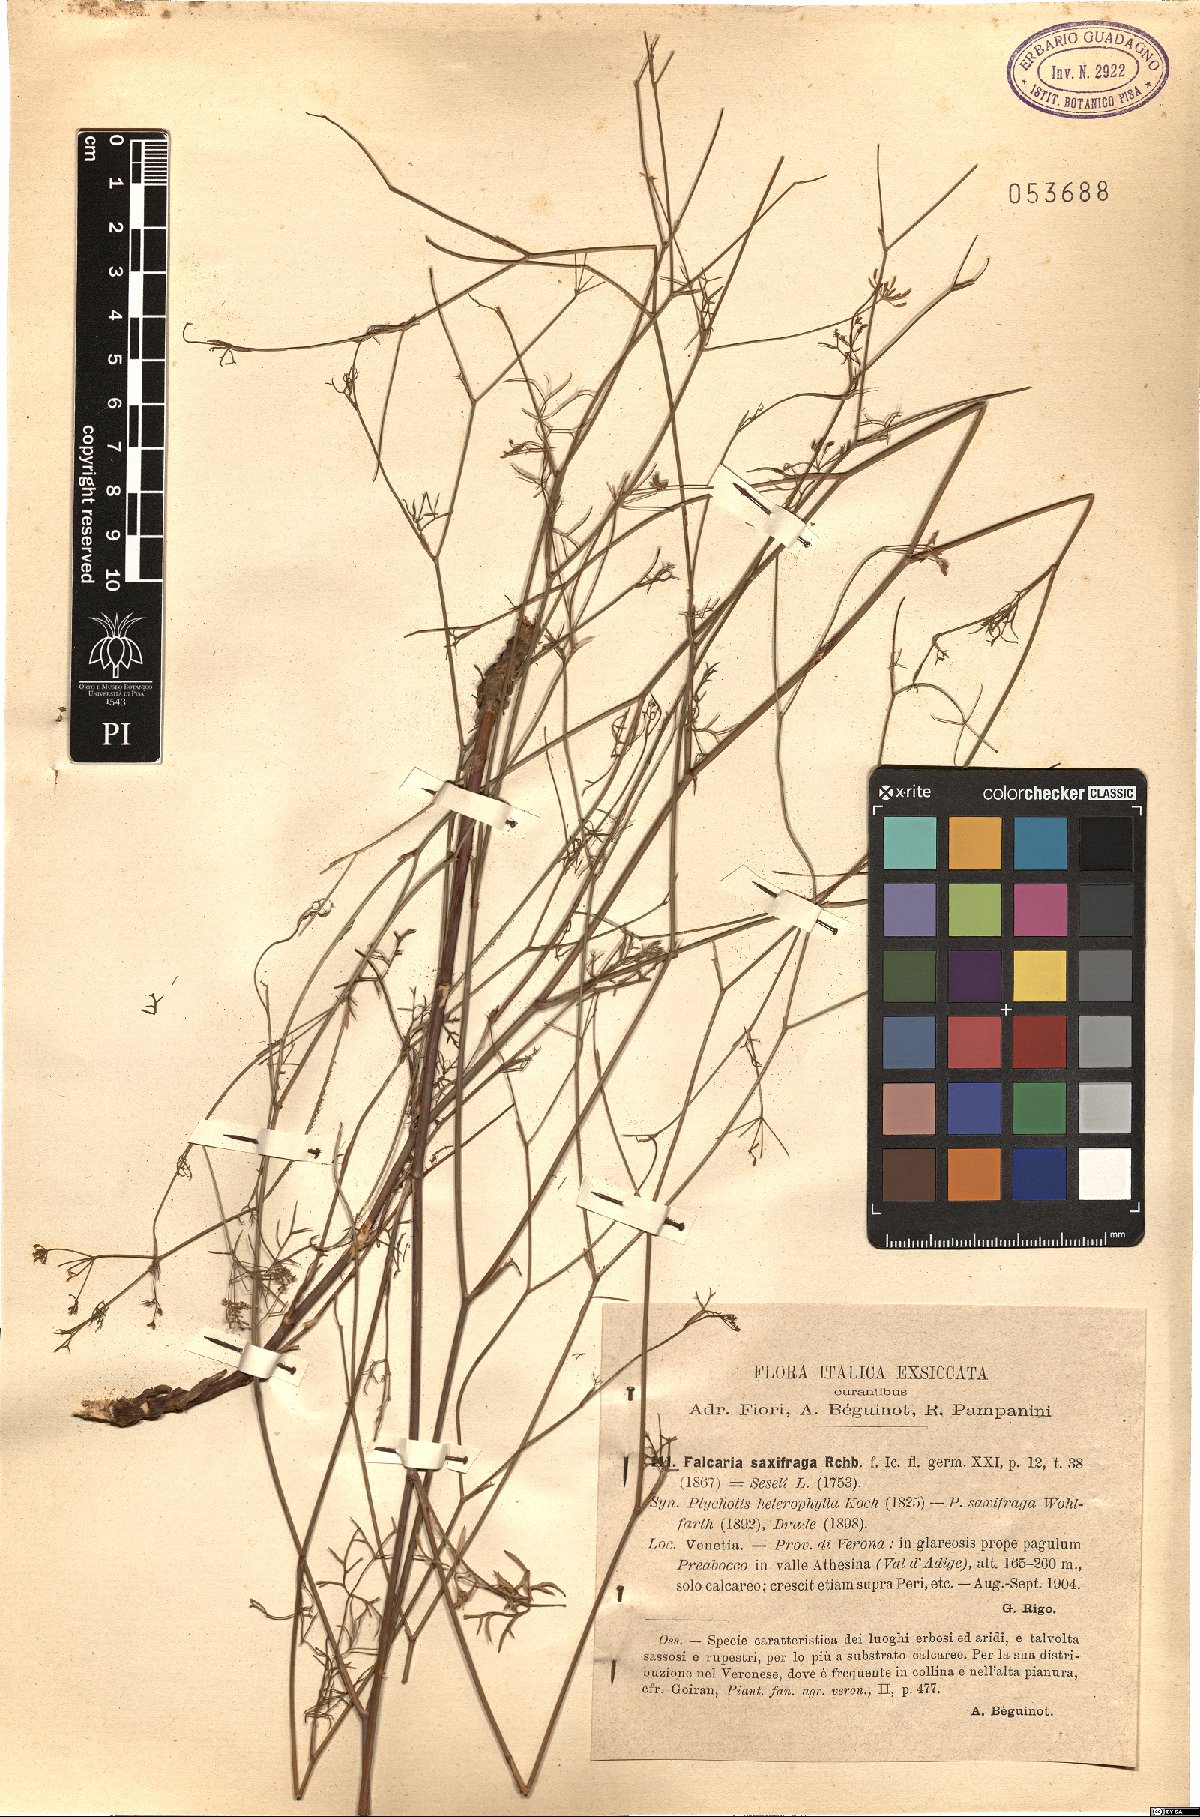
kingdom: Plantae
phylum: Tracheophyta
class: Magnoliopsida
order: Apiales
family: Apiaceae
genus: Ptychotis
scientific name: Ptychotis saxifraga
